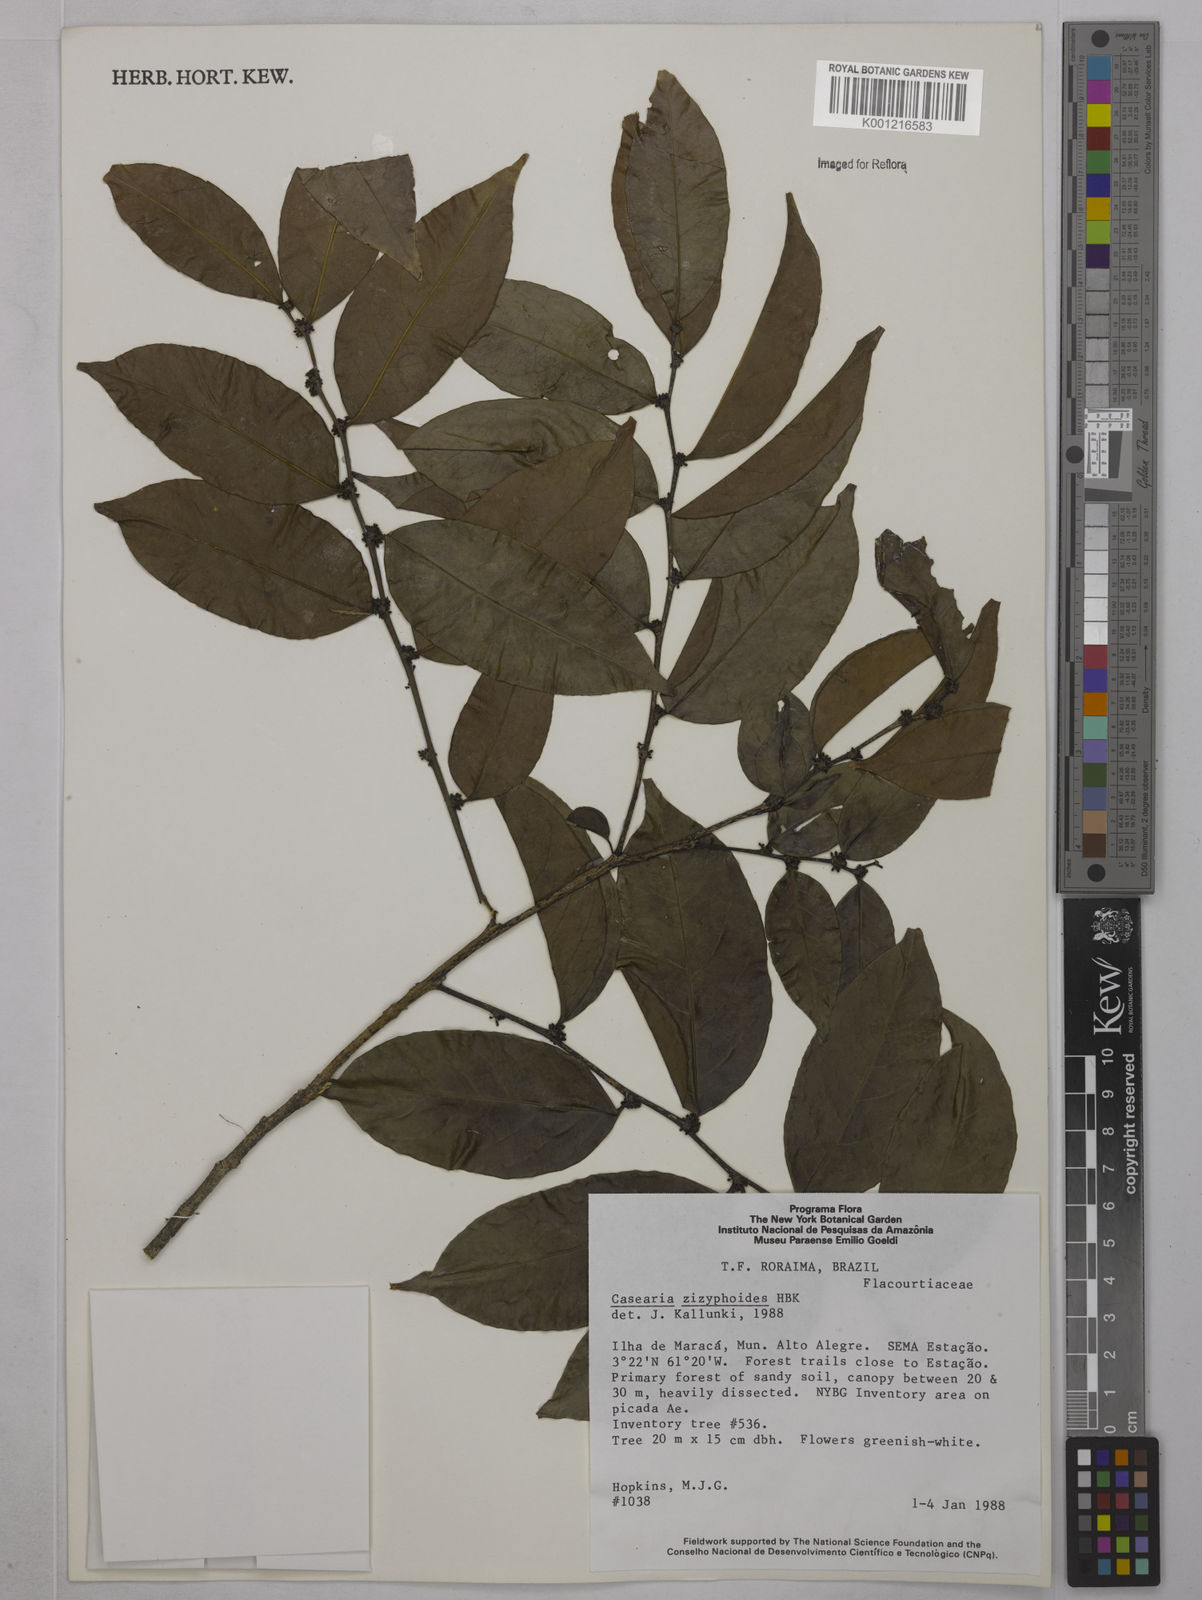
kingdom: Plantae
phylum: Tracheophyta
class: Magnoliopsida
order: Malpighiales
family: Salicaceae
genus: Casearia
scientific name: Casearia zizyphoides
